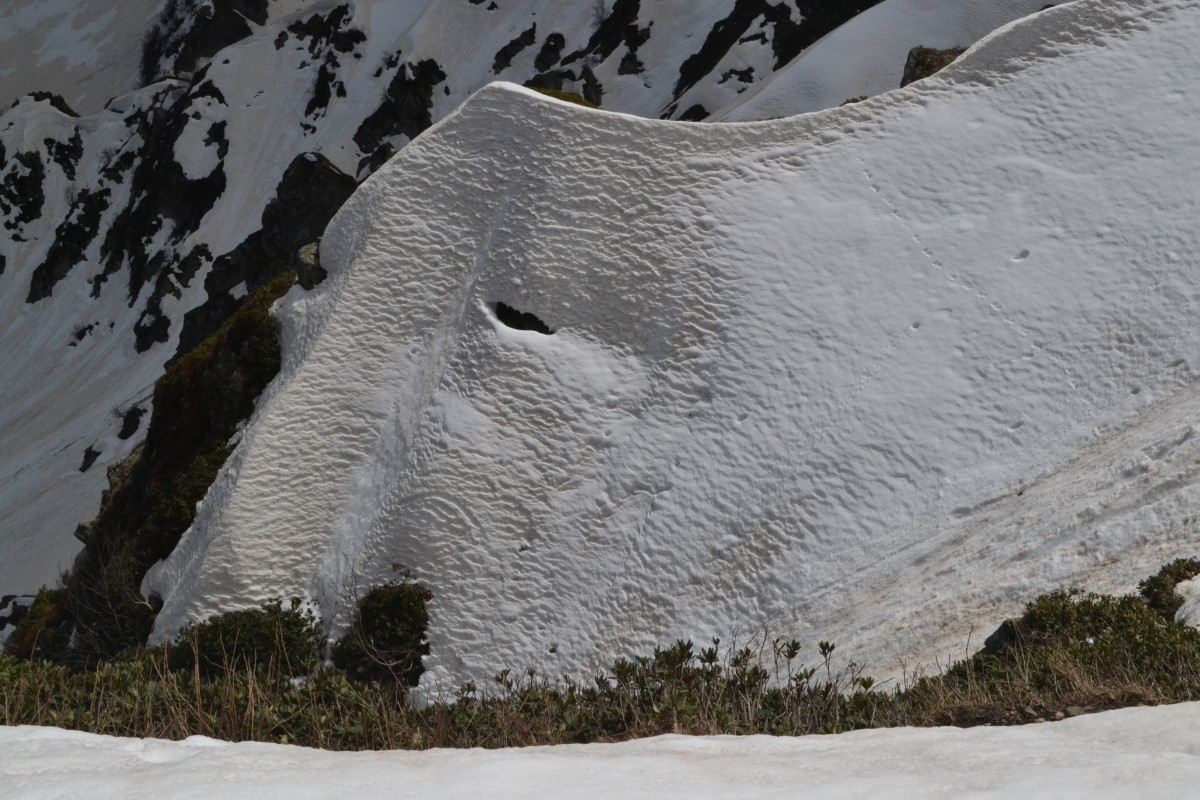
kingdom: Plantae
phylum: Tracheophyta
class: Magnoliopsida
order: Ericales
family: Ericaceae
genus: Rhododendron
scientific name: Rhododendron
